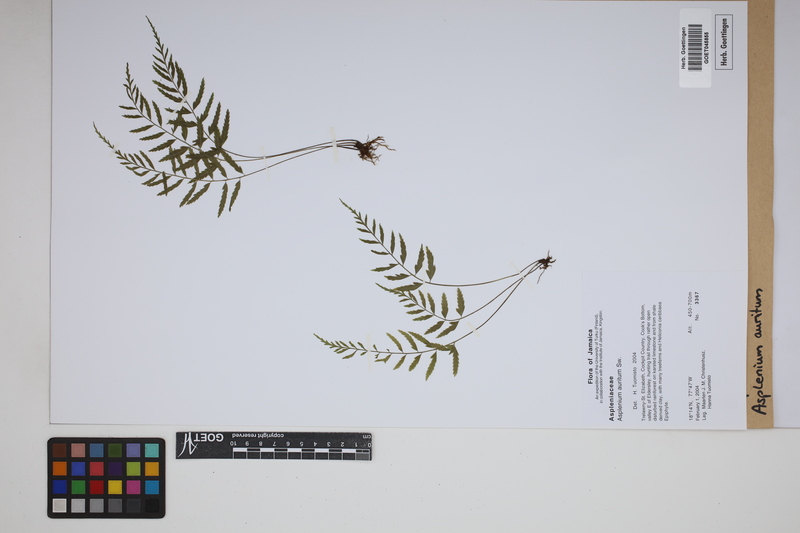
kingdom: Plantae
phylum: Tracheophyta
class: Polypodiopsida
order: Polypodiales
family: Aspleniaceae
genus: Asplenium
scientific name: Asplenium auritum
